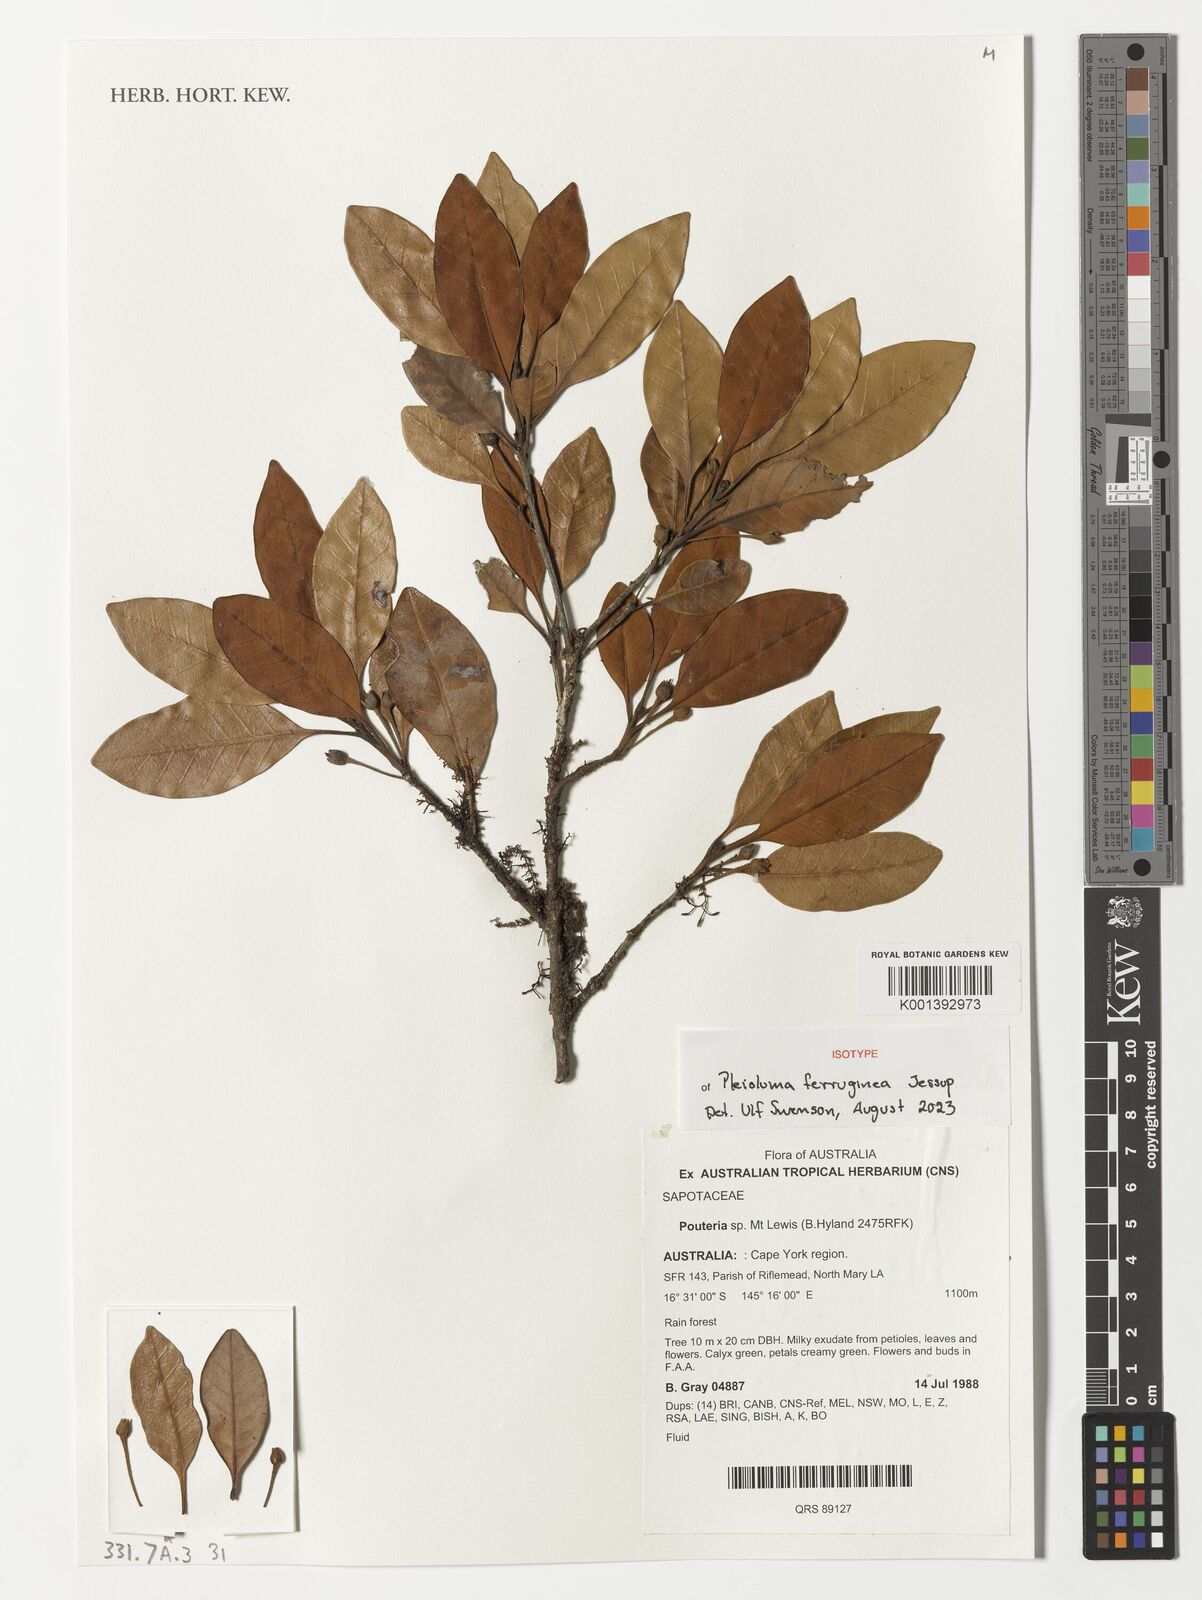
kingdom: Plantae
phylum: Tracheophyta
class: Magnoliopsida
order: Ericales
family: Sapotaceae
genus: Pleioluma
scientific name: Pleioluma ferruginea
